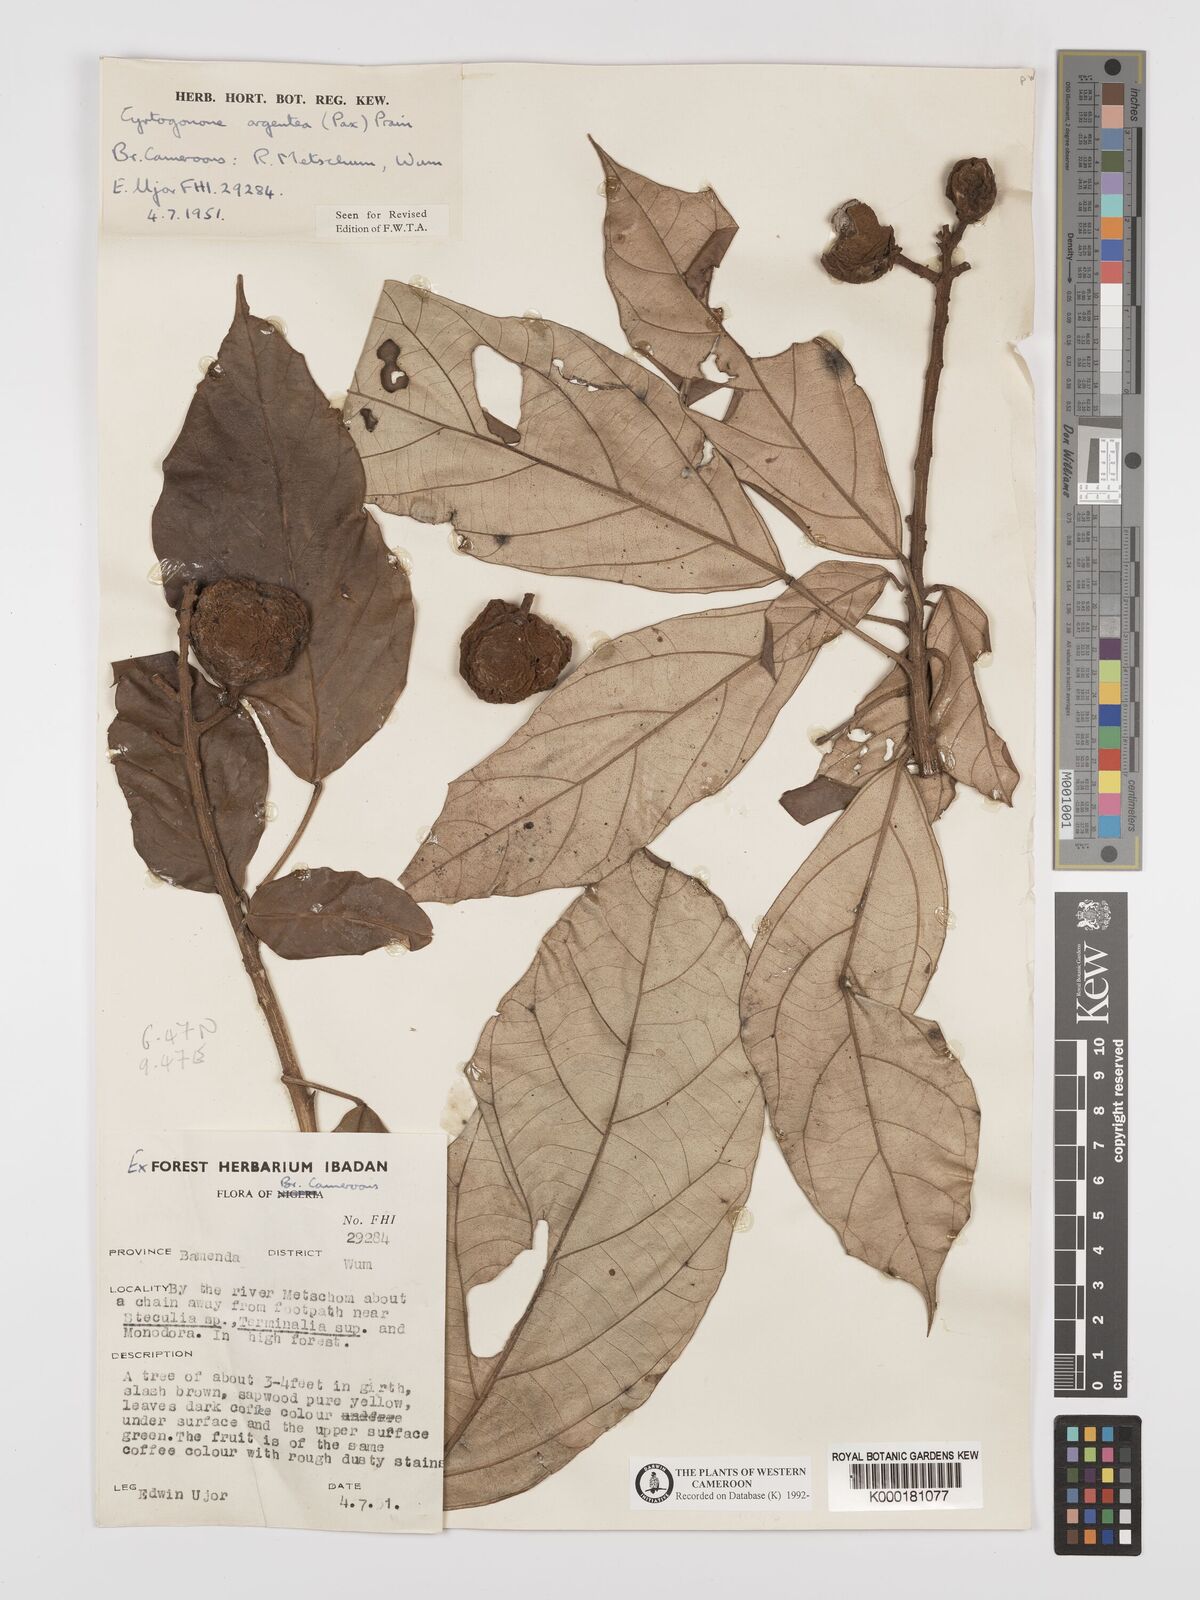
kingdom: Plantae
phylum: Tracheophyta
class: Magnoliopsida
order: Malpighiales
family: Euphorbiaceae
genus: Cyrtogonone
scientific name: Cyrtogonone argentea
